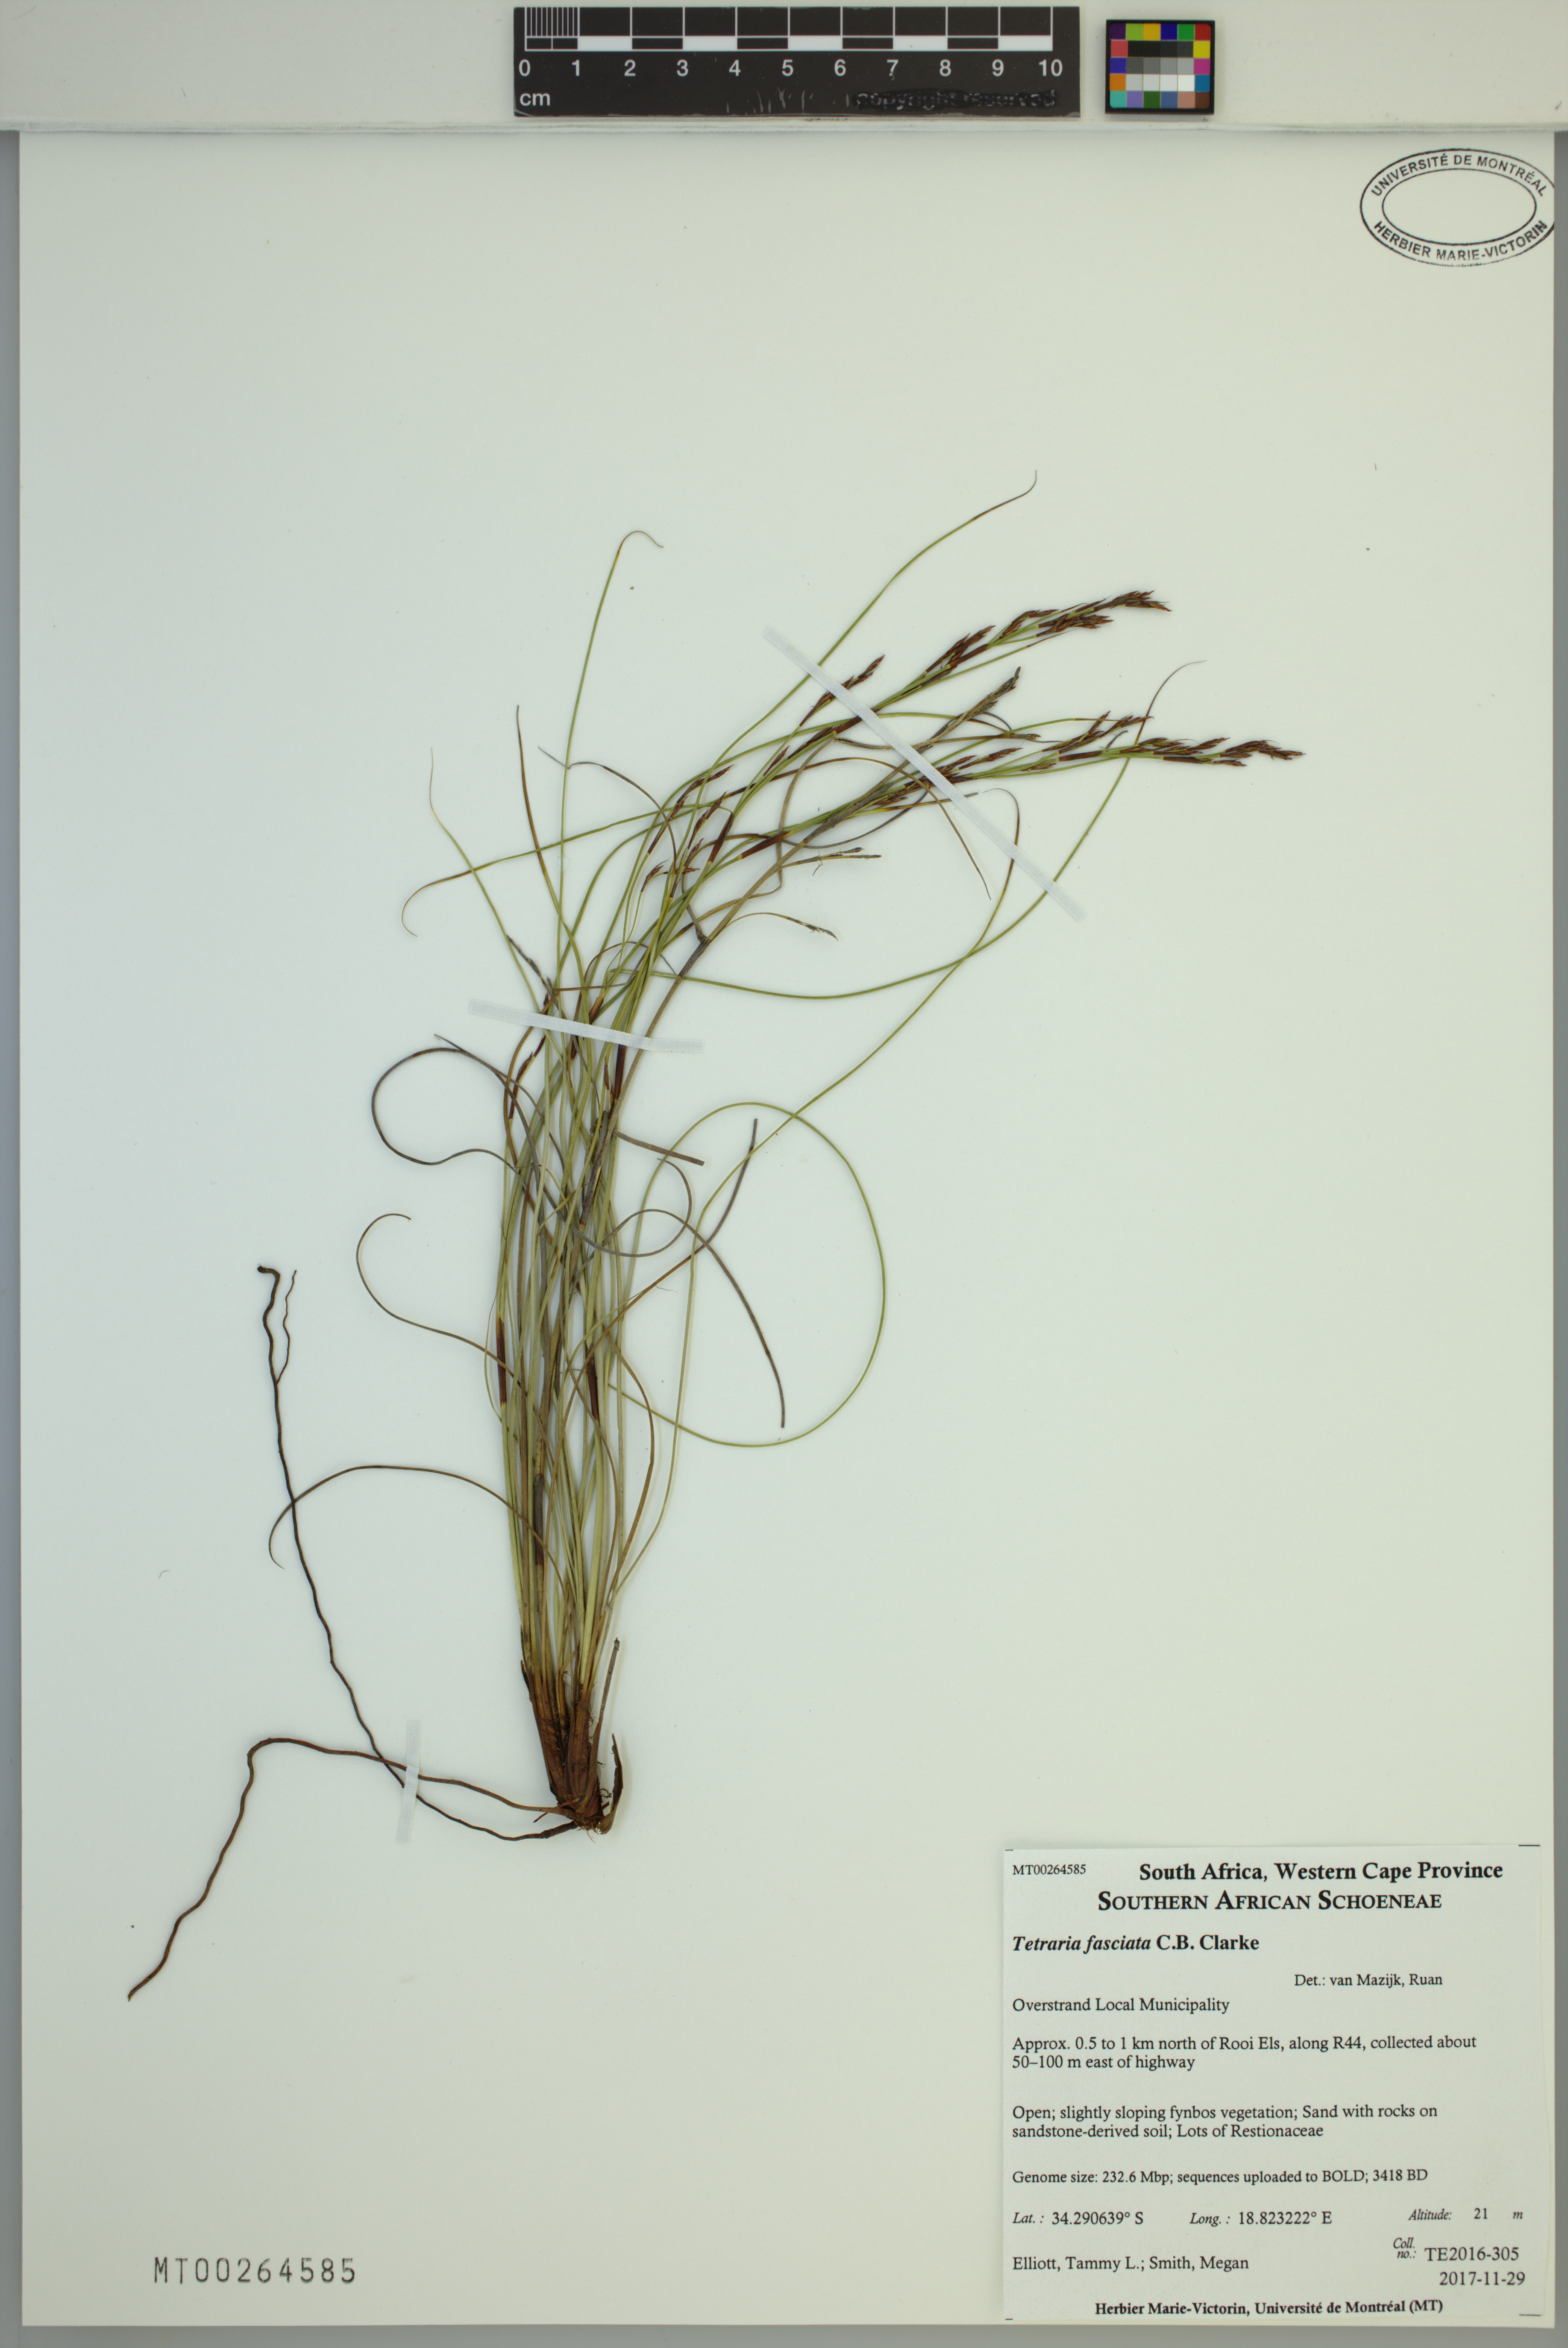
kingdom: Plantae
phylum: Tracheophyta
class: Liliopsida
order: Poales
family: Cyperaceae
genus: Tetraria
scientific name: Tetraria fasciata
